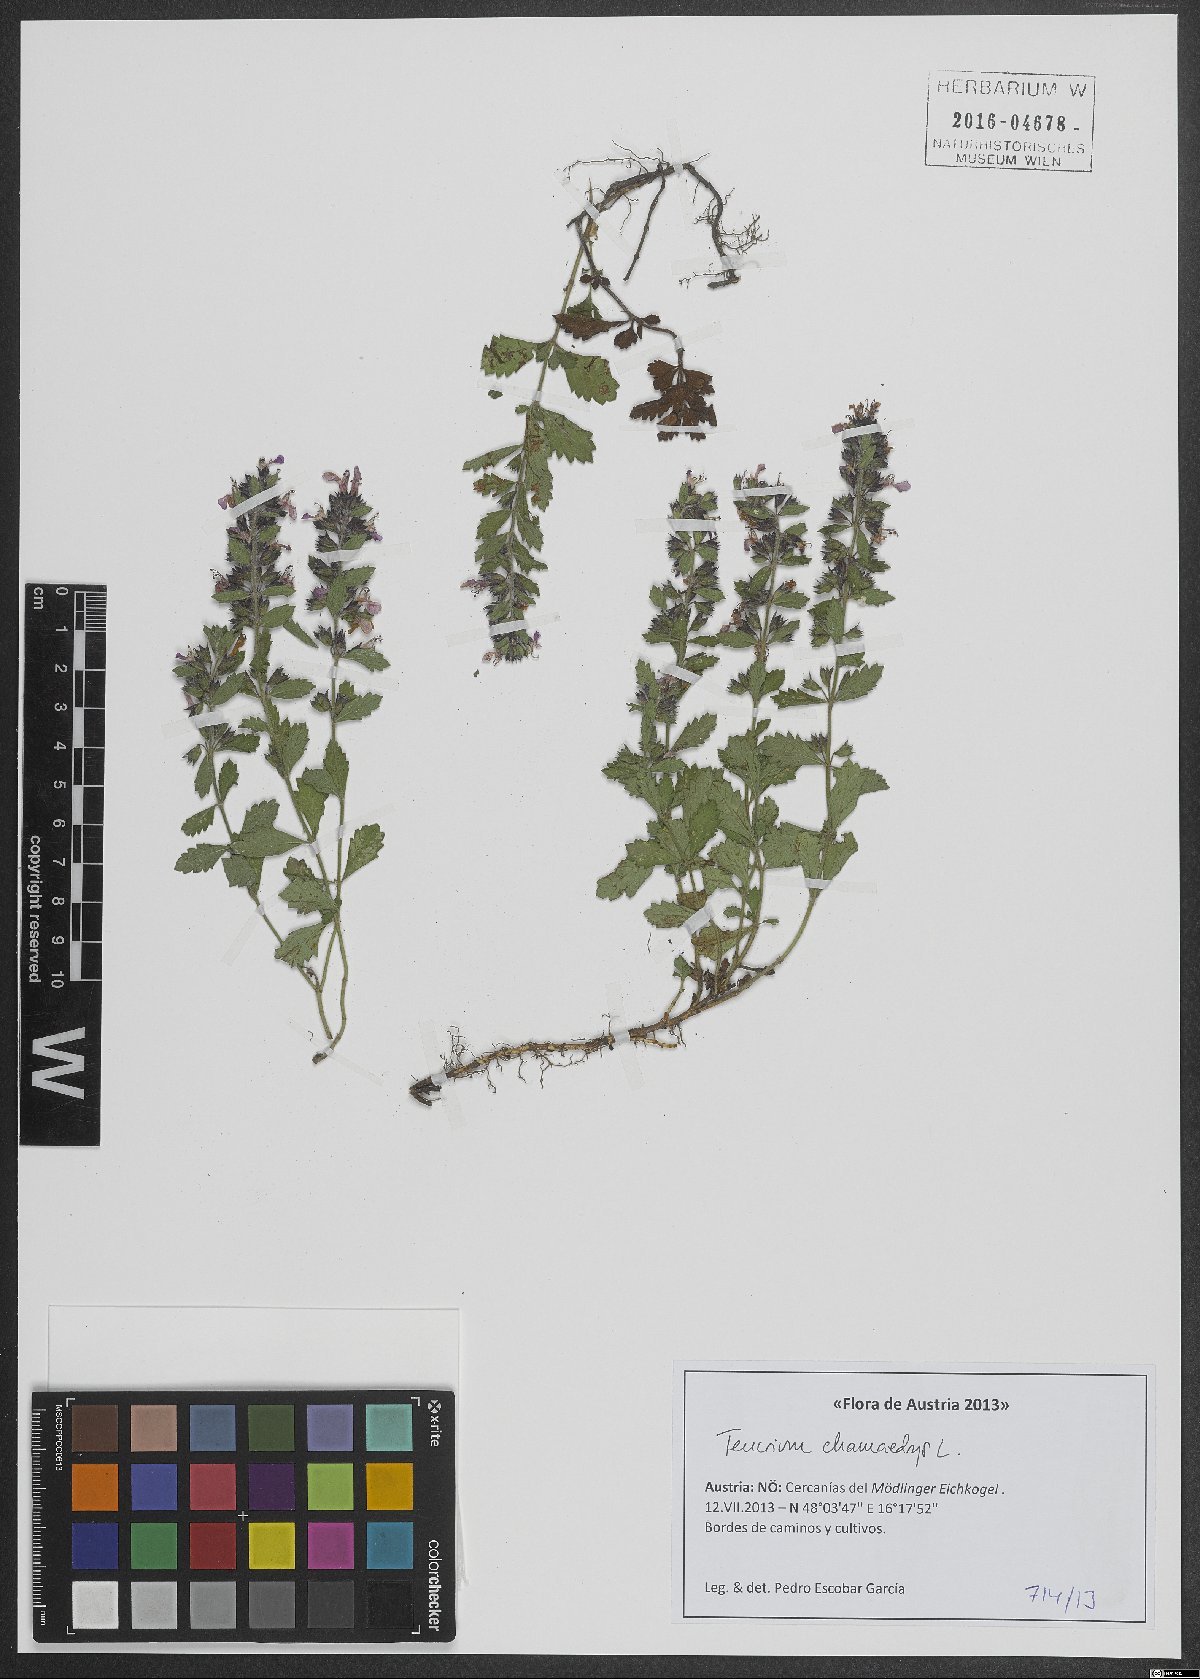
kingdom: Plantae
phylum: Tracheophyta
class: Magnoliopsida
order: Lamiales
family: Lamiaceae
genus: Teucrium
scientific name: Teucrium chamaedrys
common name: Wall germander
